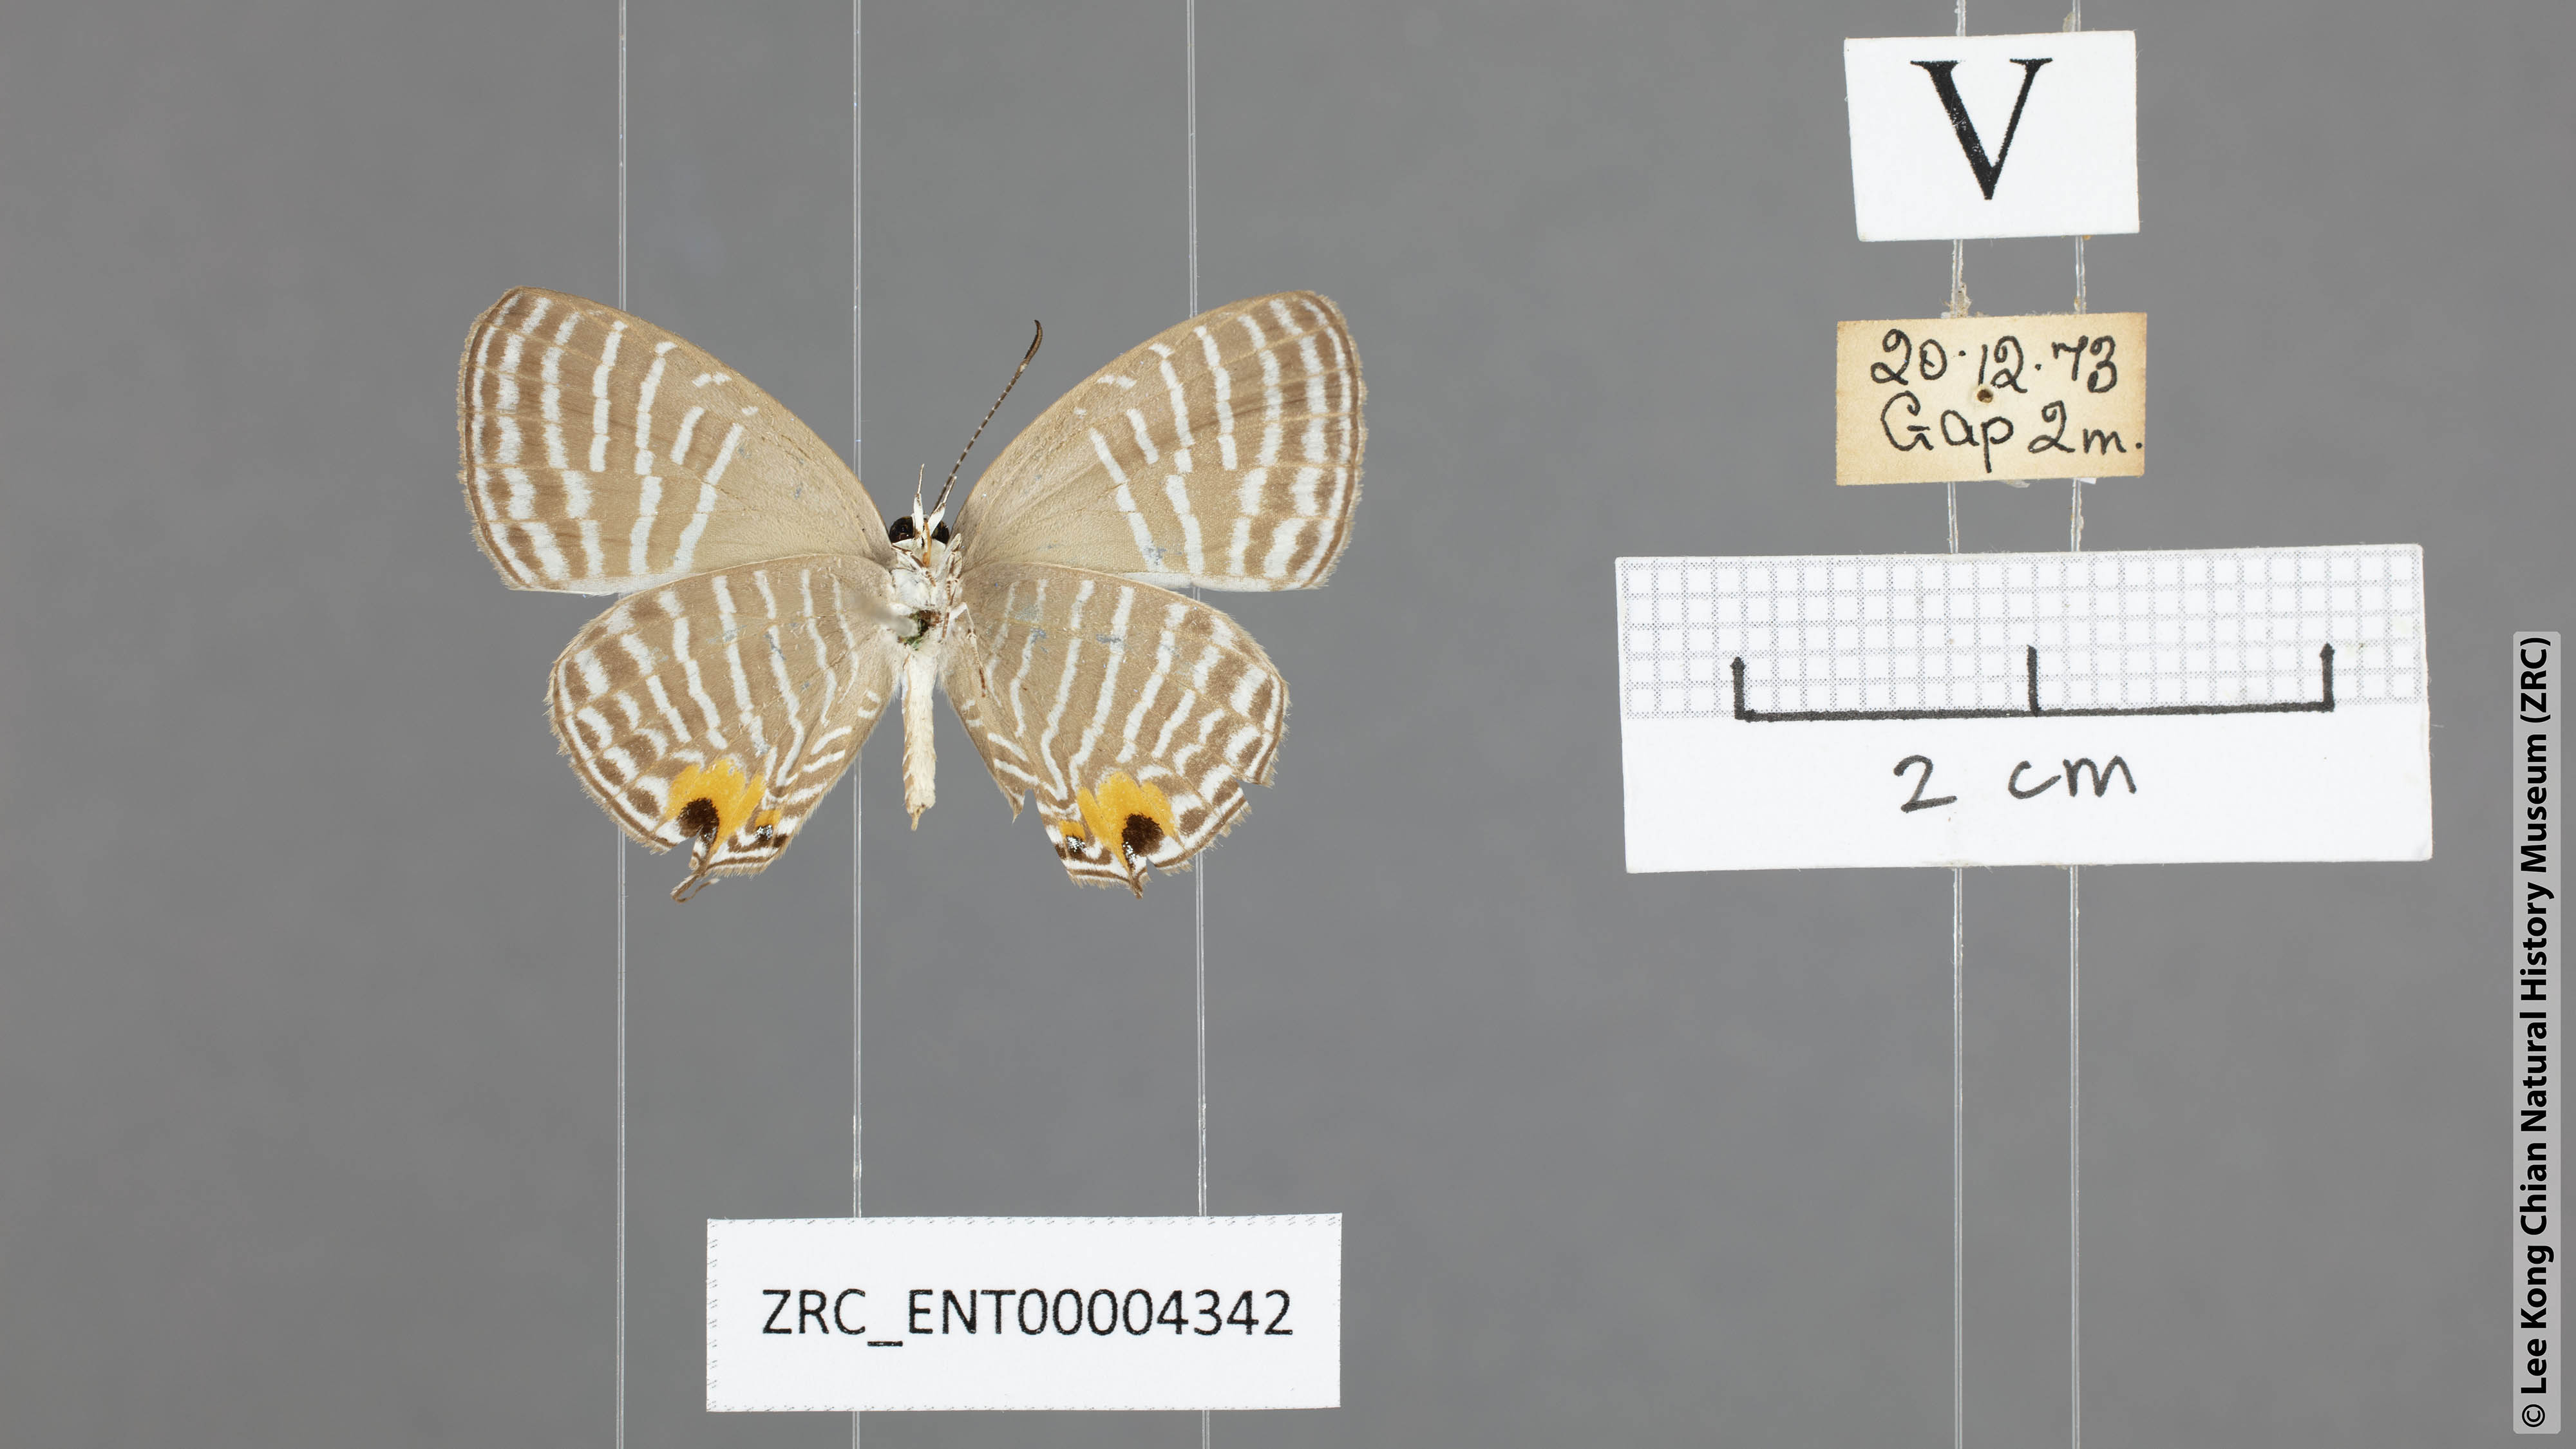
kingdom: Animalia
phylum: Arthropoda
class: Insecta
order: Lepidoptera
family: Lycaenidae
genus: Jamides
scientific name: Jamides parasaturata
